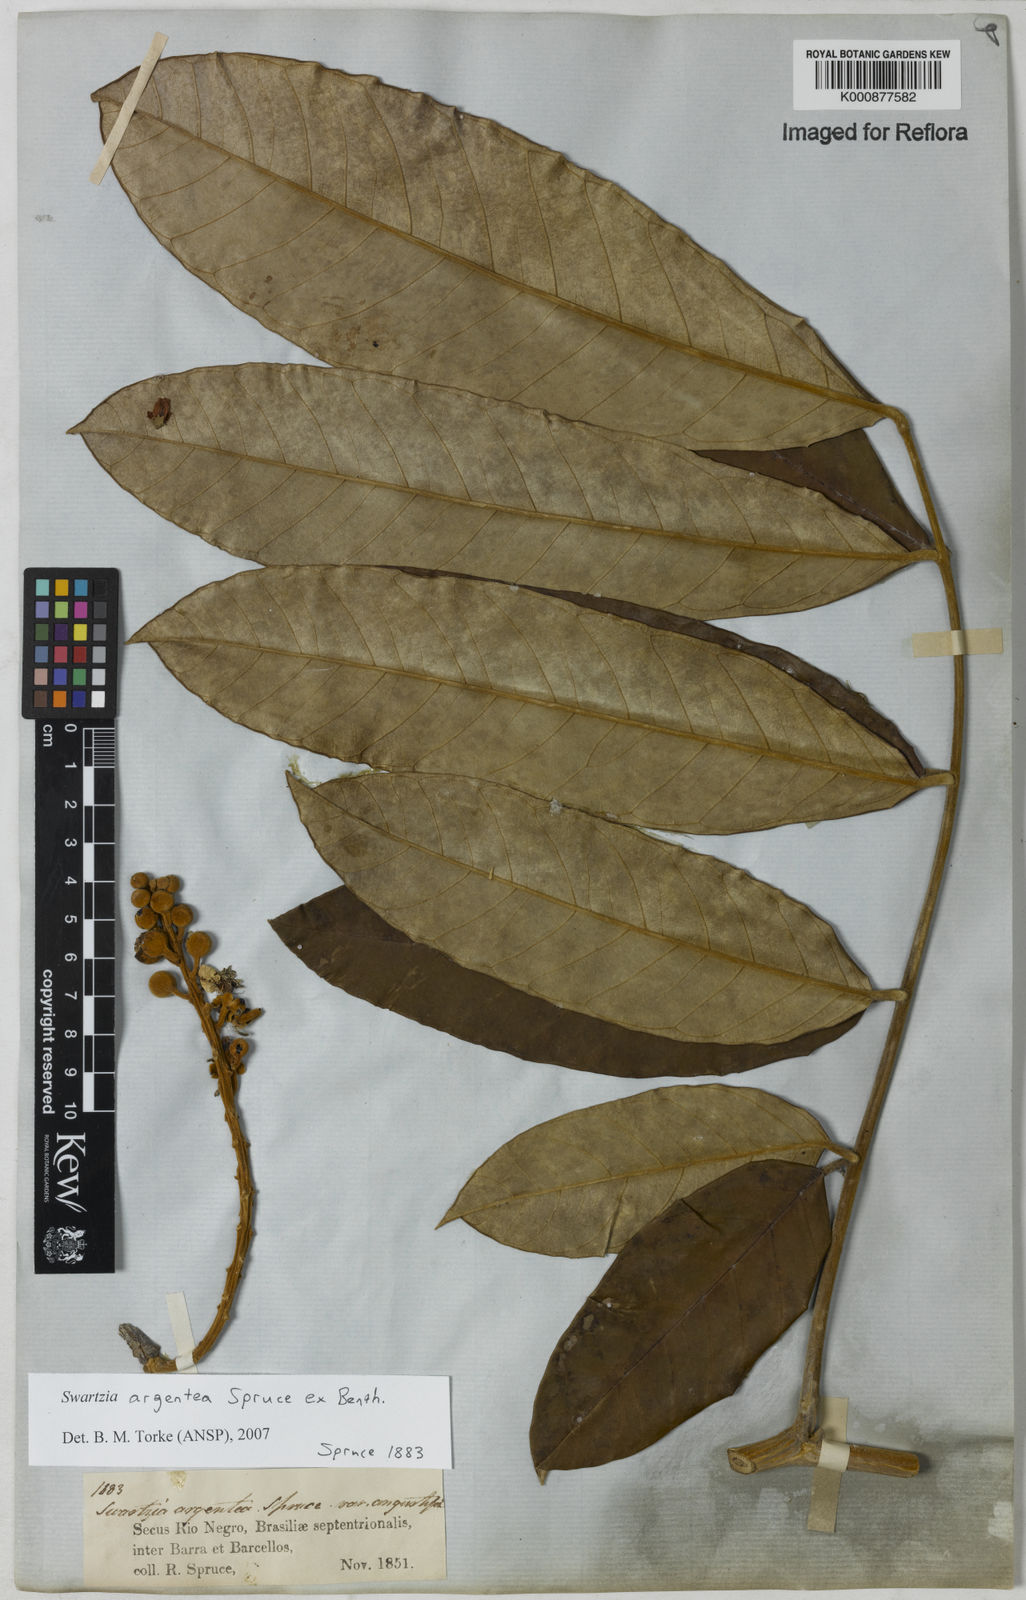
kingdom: Plantae
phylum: Tracheophyta
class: Magnoliopsida
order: Fabales
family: Fabaceae
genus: Swartzia
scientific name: Swartzia argentea
